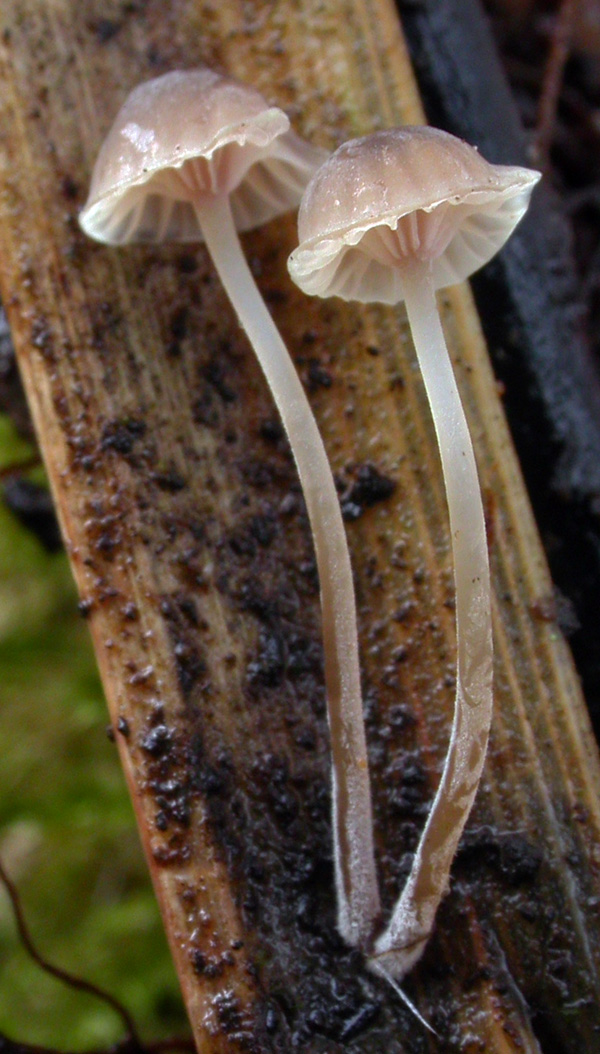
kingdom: Fungi
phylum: Basidiomycota
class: Agaricomycetes
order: Agaricales
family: Mycenaceae
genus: Mycena
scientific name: Mycena riparia
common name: star-huesvamp
